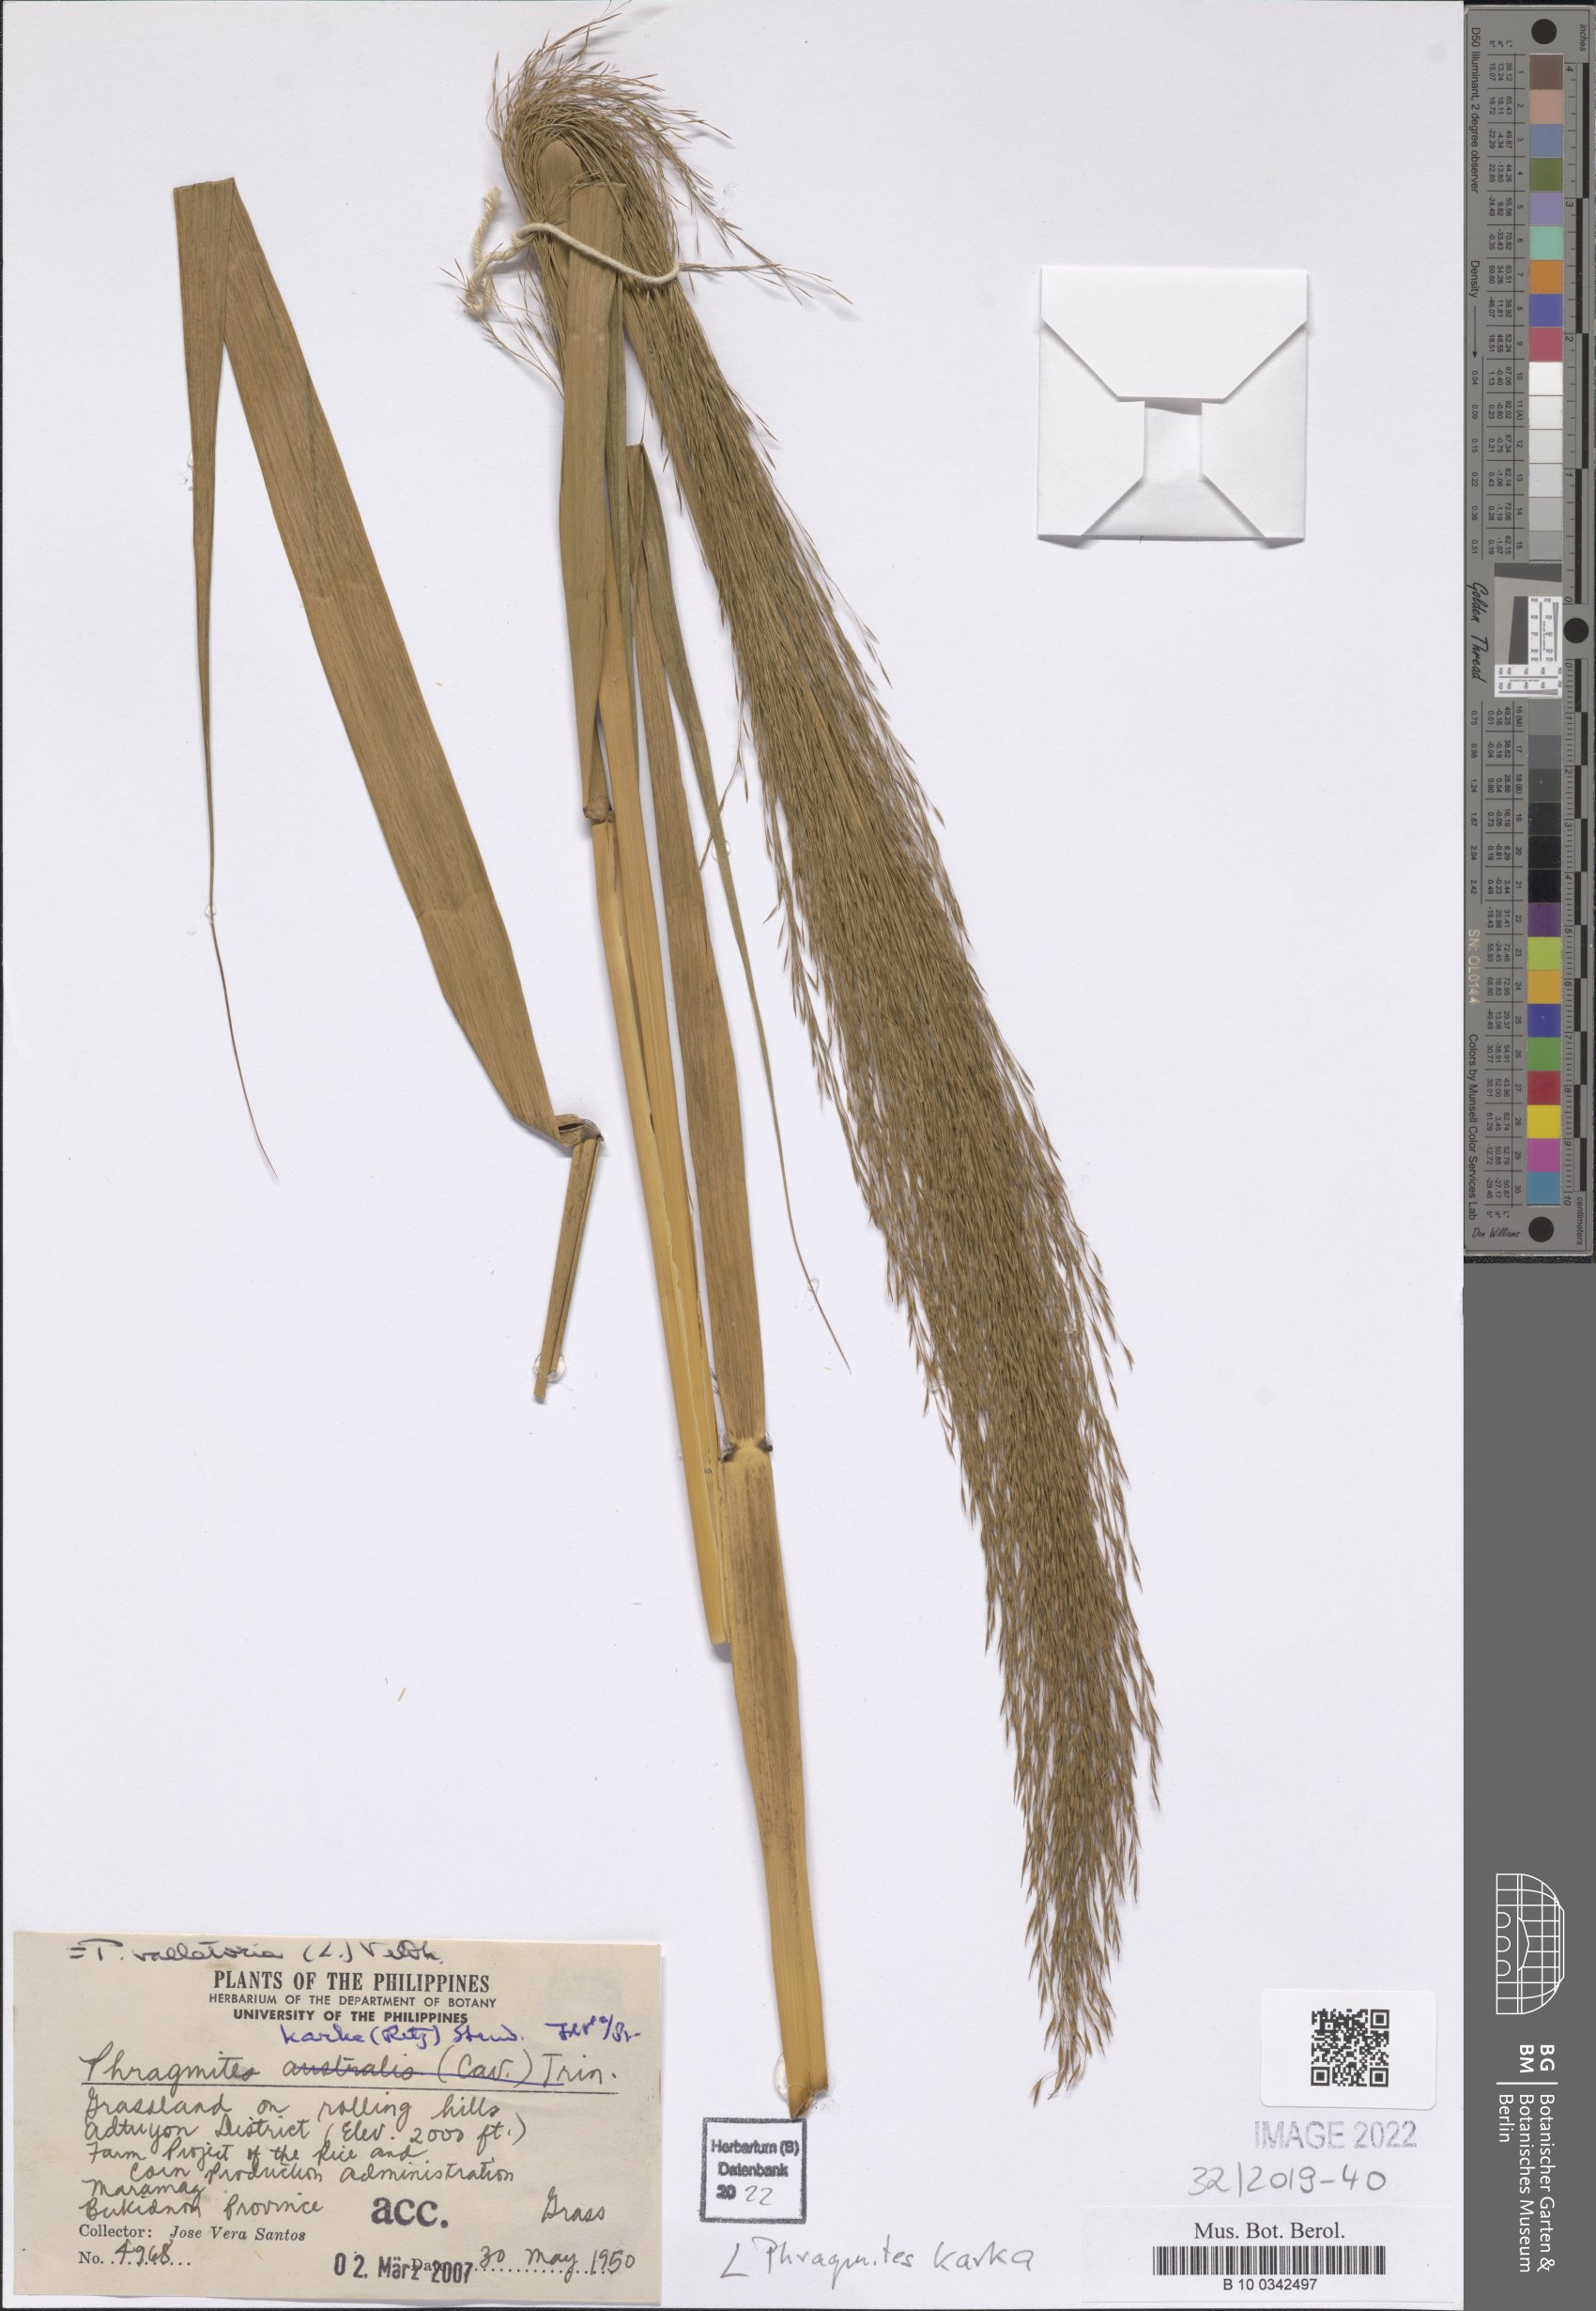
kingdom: Plantae
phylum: Tracheophyta
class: Liliopsida
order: Poales
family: Poaceae
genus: Phragmites
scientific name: Phragmites karka
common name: Tropical reed
